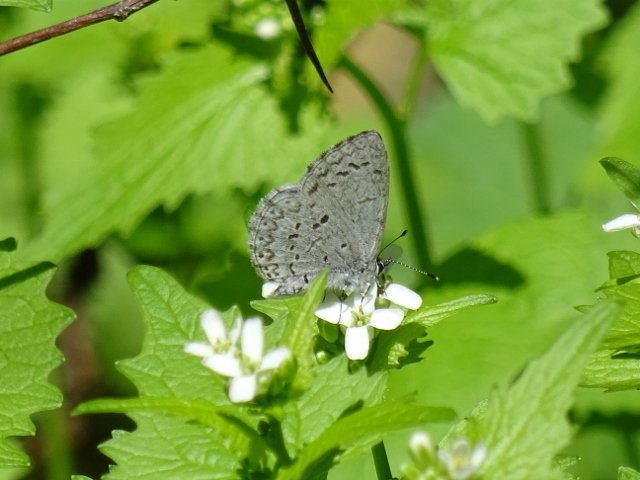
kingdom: Animalia
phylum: Arthropoda
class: Insecta
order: Lepidoptera
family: Lycaenidae
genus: Celastrina
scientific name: Celastrina
